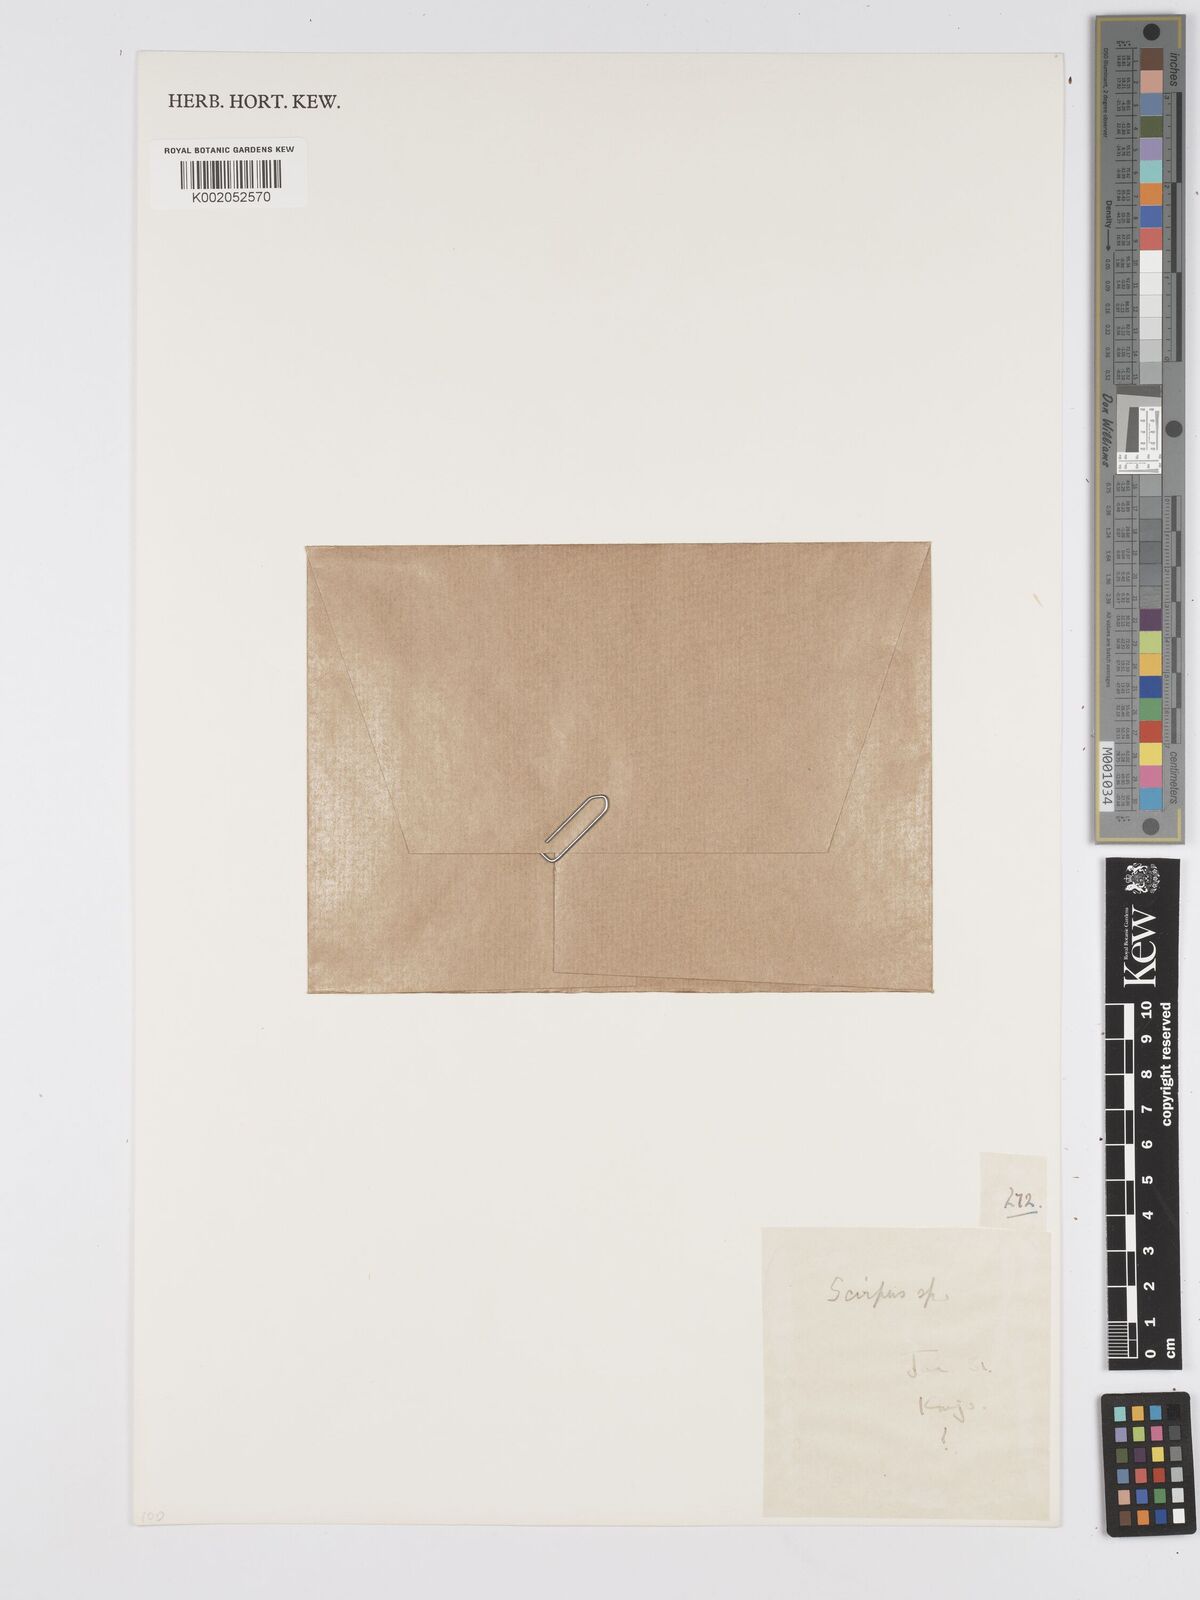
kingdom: Plantae
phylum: Tracheophyta
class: Liliopsida
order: Poales
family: Cyperaceae
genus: Scirpus
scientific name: Scirpus
